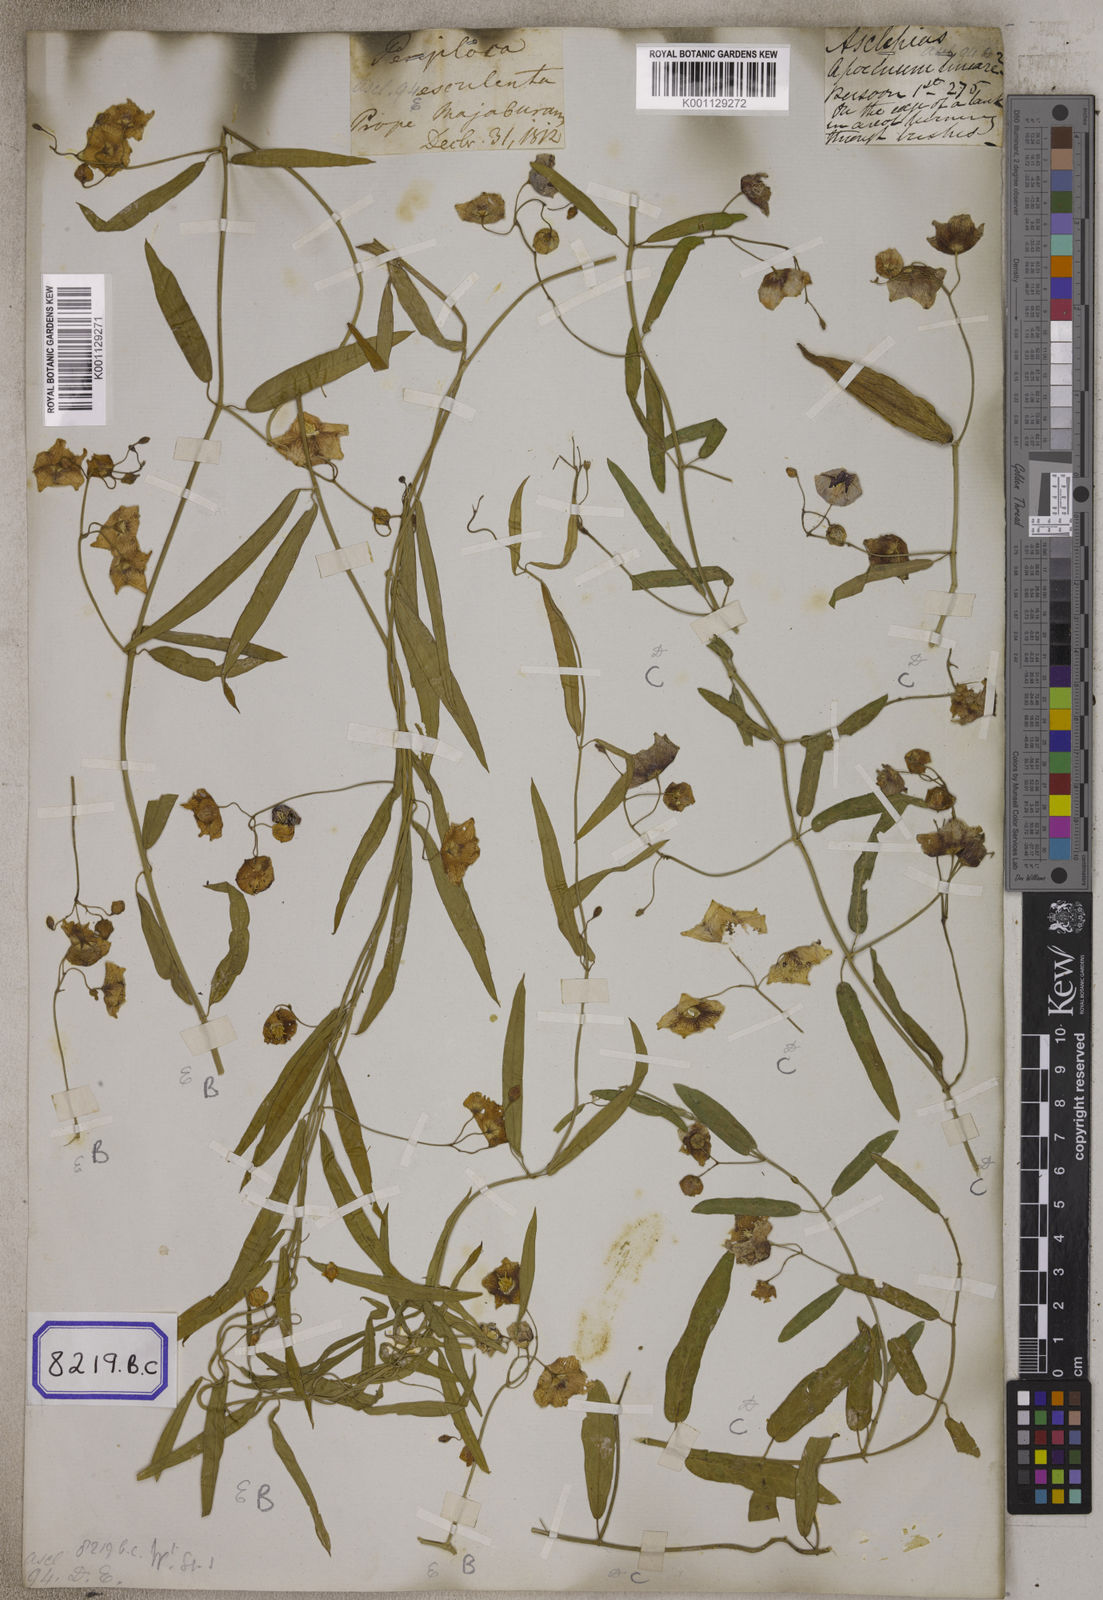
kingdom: Plantae
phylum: Tracheophyta
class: Magnoliopsida
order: Gentianales
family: Apocynaceae
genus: Oxystelma
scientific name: Oxystelma
